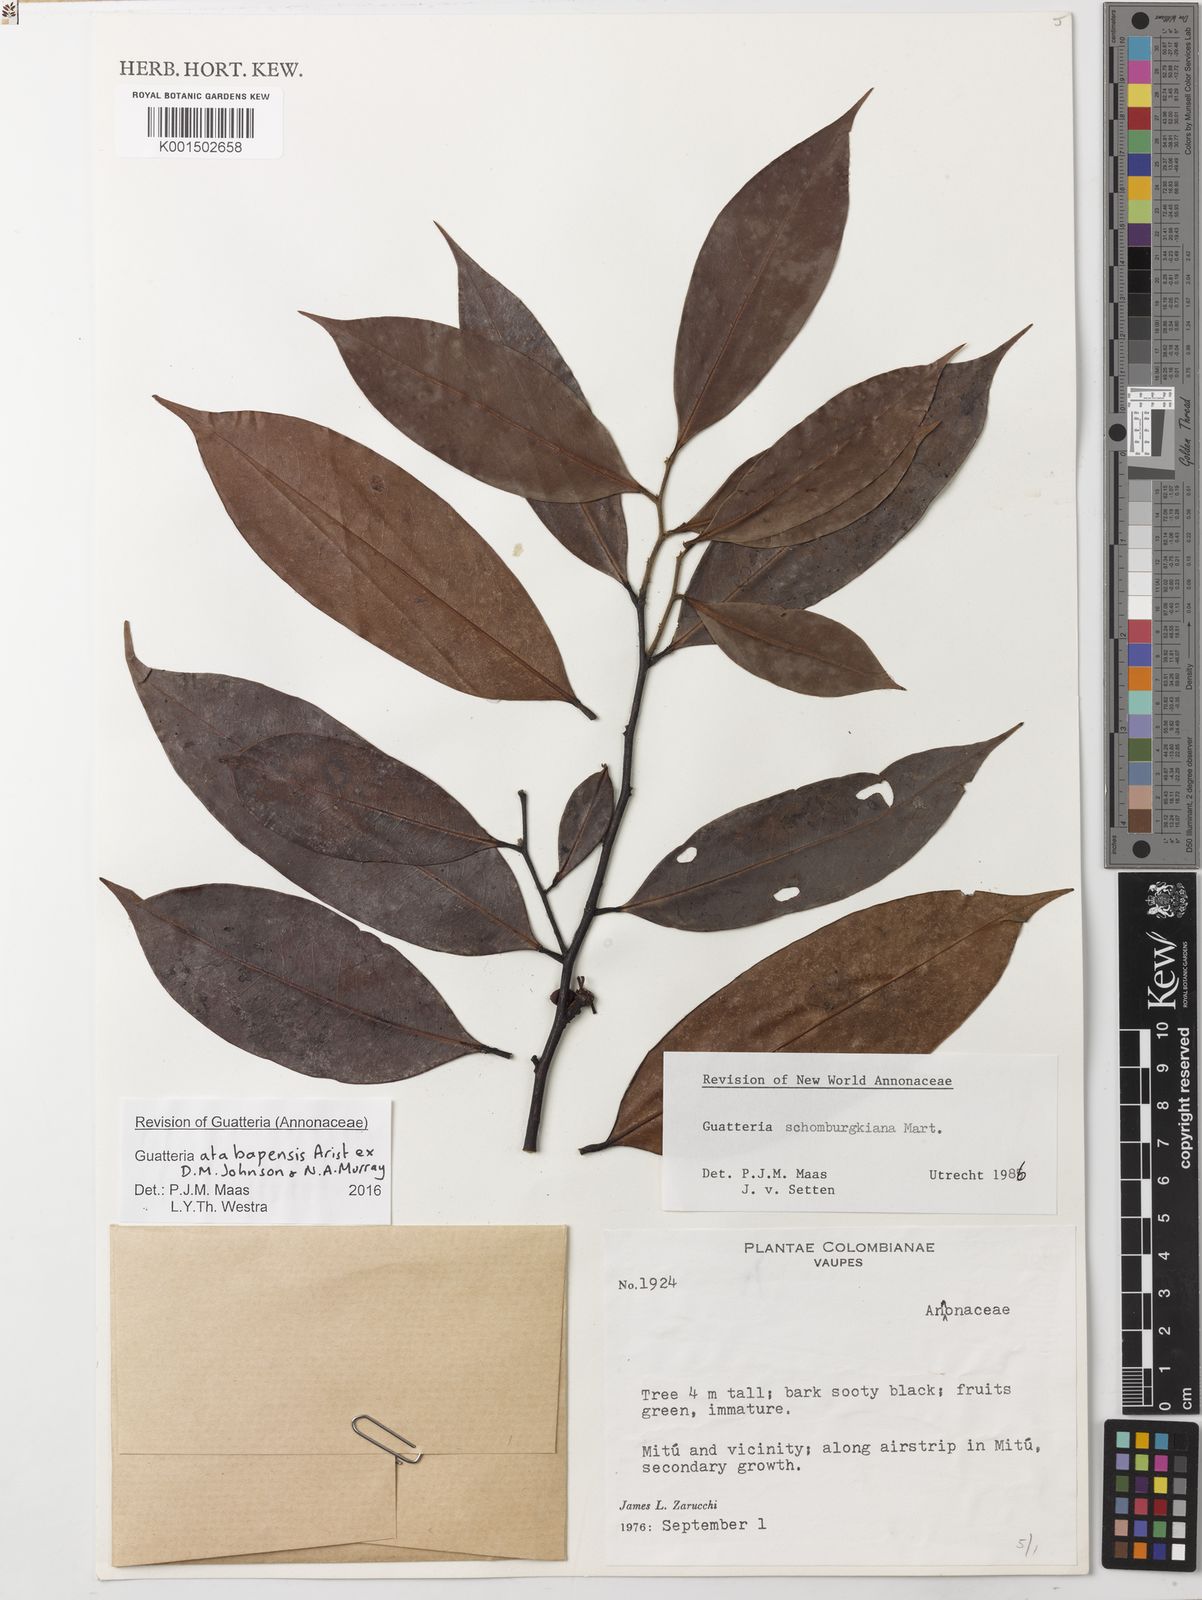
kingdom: Plantae
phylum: Tracheophyta
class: Magnoliopsida
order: Magnoliales
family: Annonaceae
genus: Guatteria
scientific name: Guatteria atabapensis
